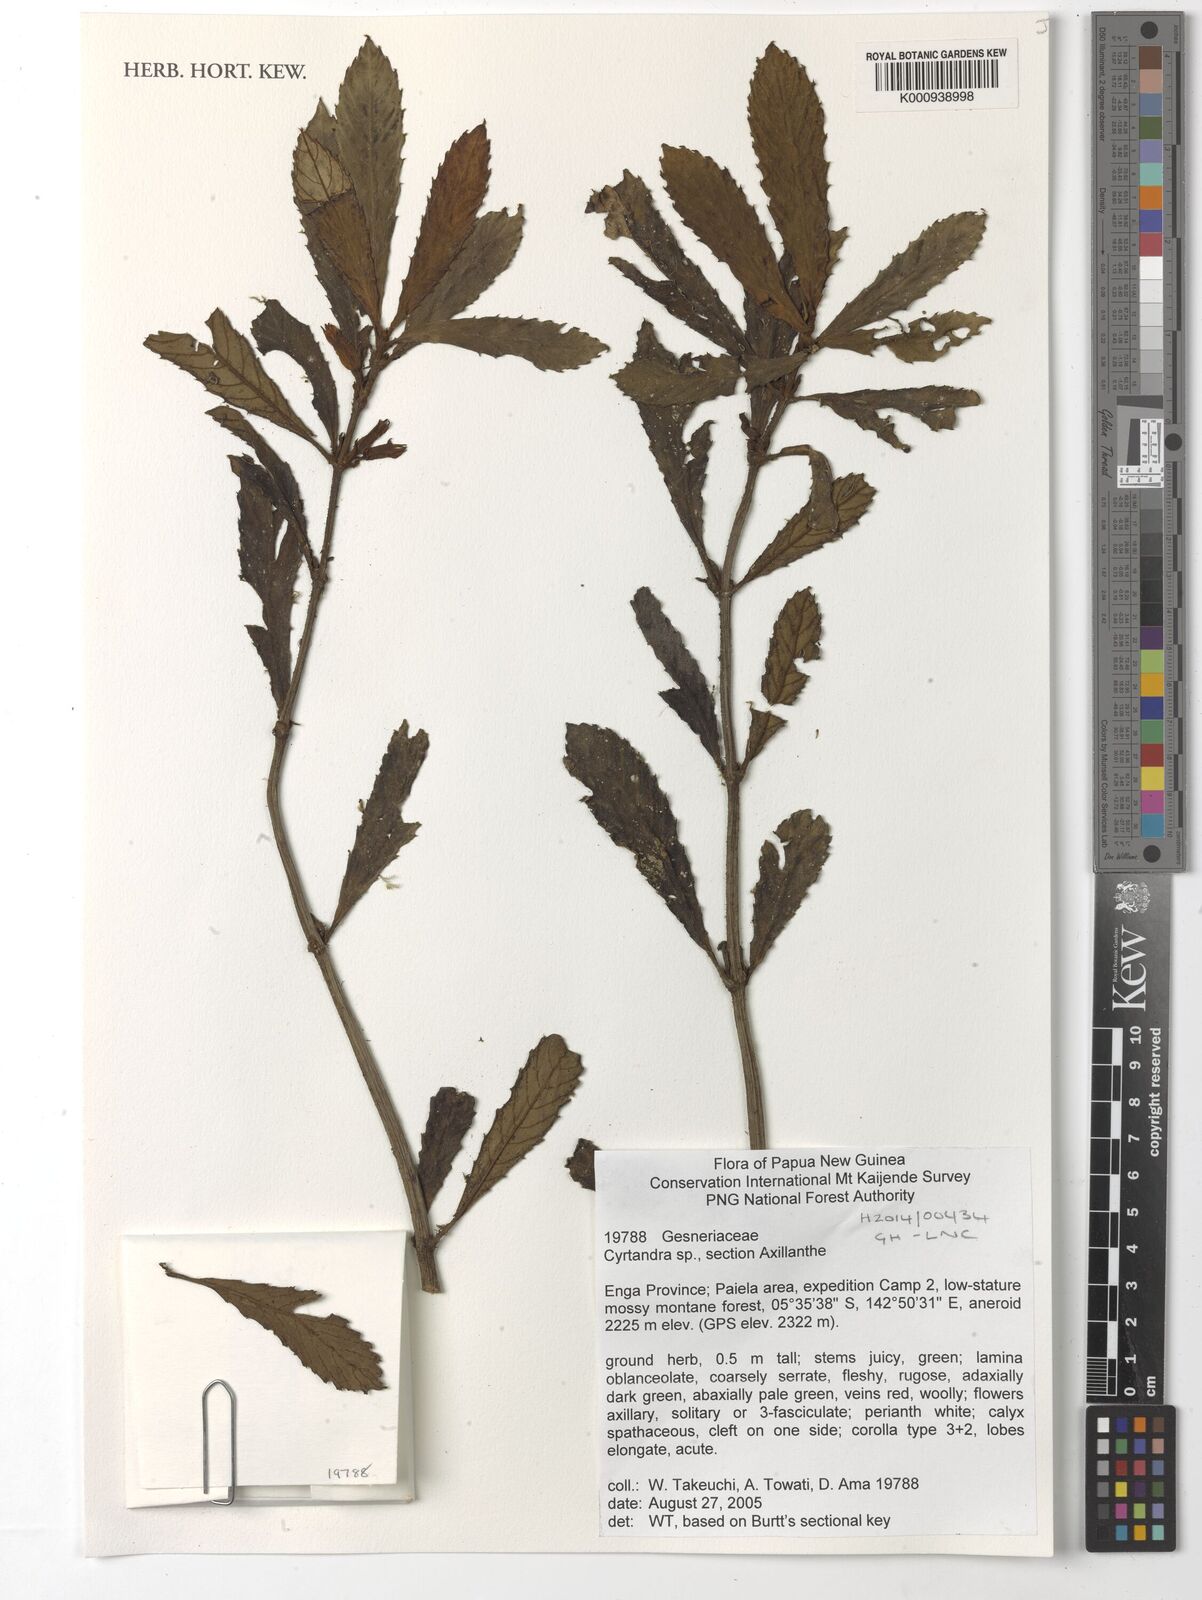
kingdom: Plantae
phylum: Tracheophyta
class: Magnoliopsida
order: Lamiales
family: Gesneriaceae
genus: Cyrtandra
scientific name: Cyrtandra
